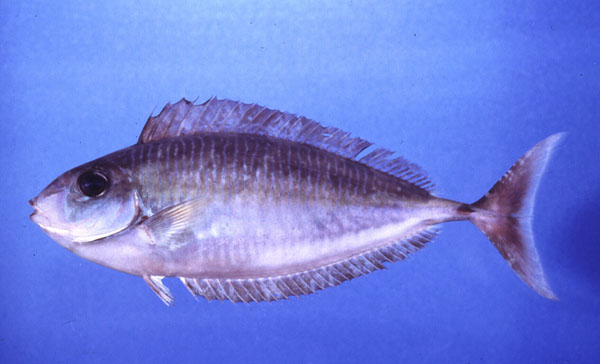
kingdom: Animalia
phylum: Chordata
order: Perciformes
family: Acanthuridae
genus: Naso
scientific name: Naso thynnoides
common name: Oneknife unicornfish
